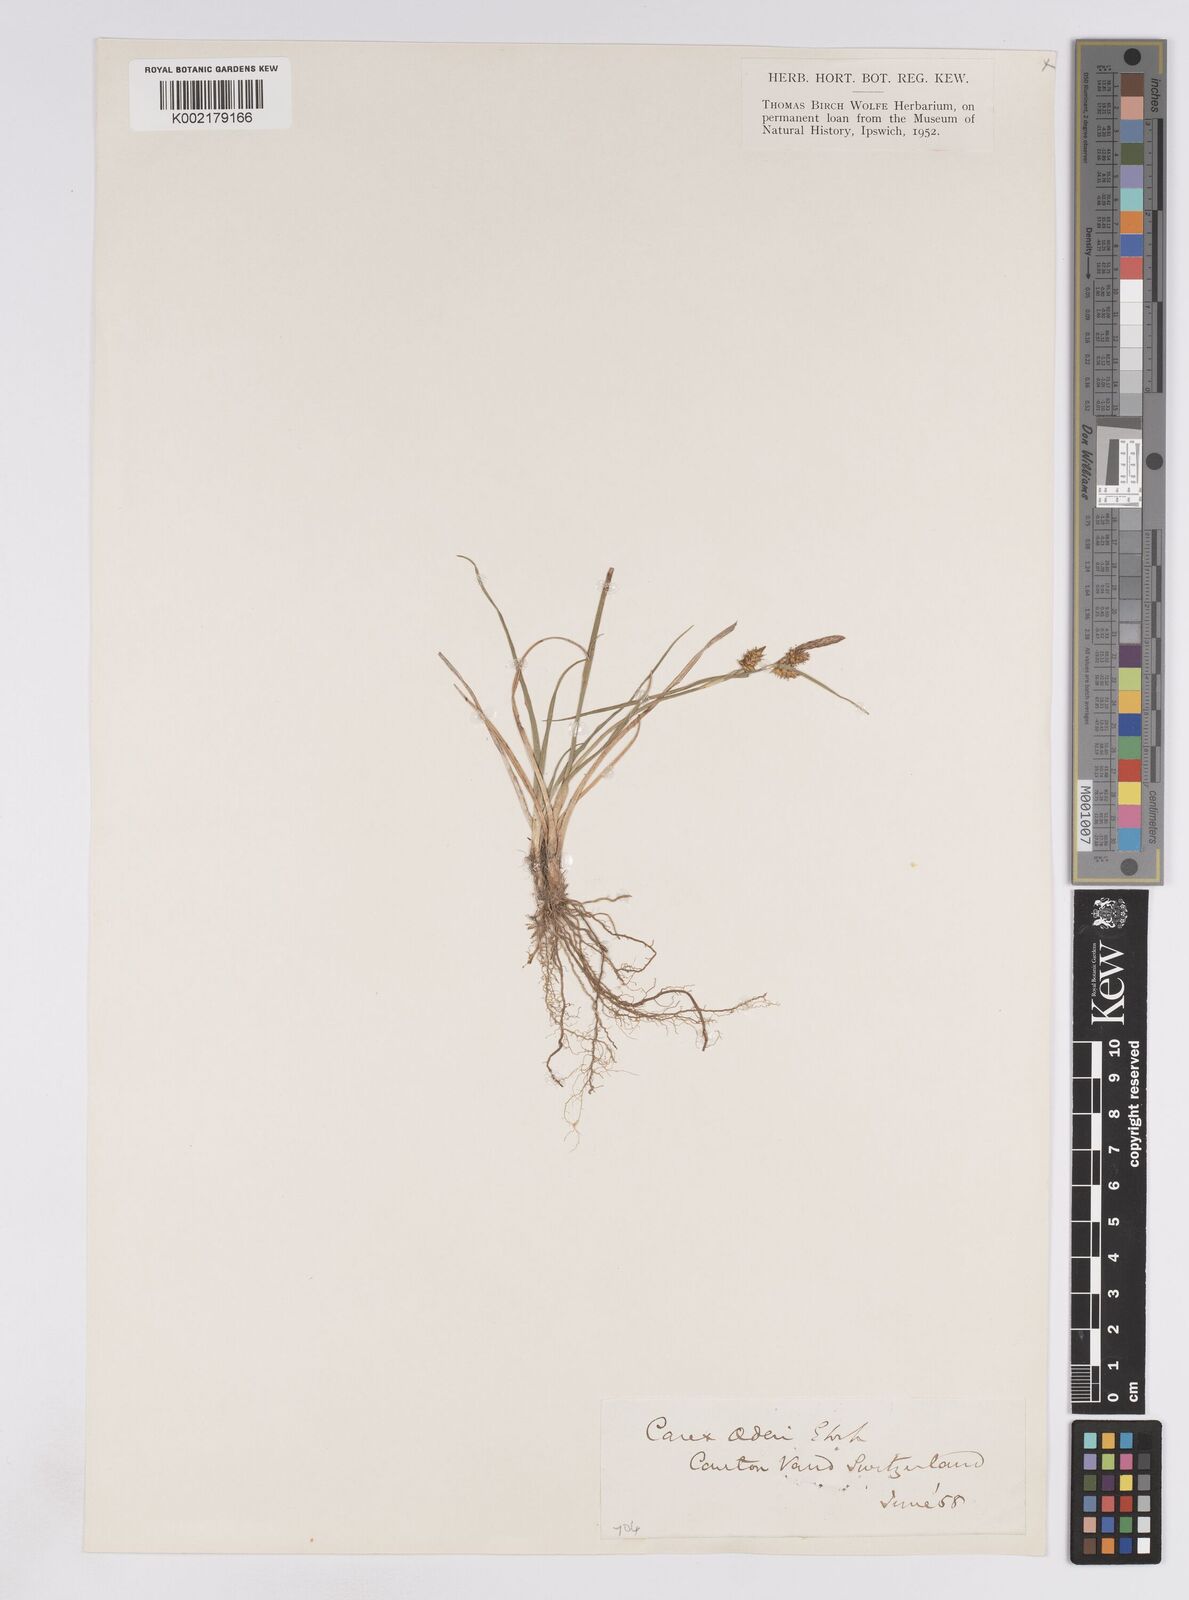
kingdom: Plantae
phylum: Tracheophyta
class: Liliopsida
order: Poales
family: Cyperaceae
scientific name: Cyperaceae
